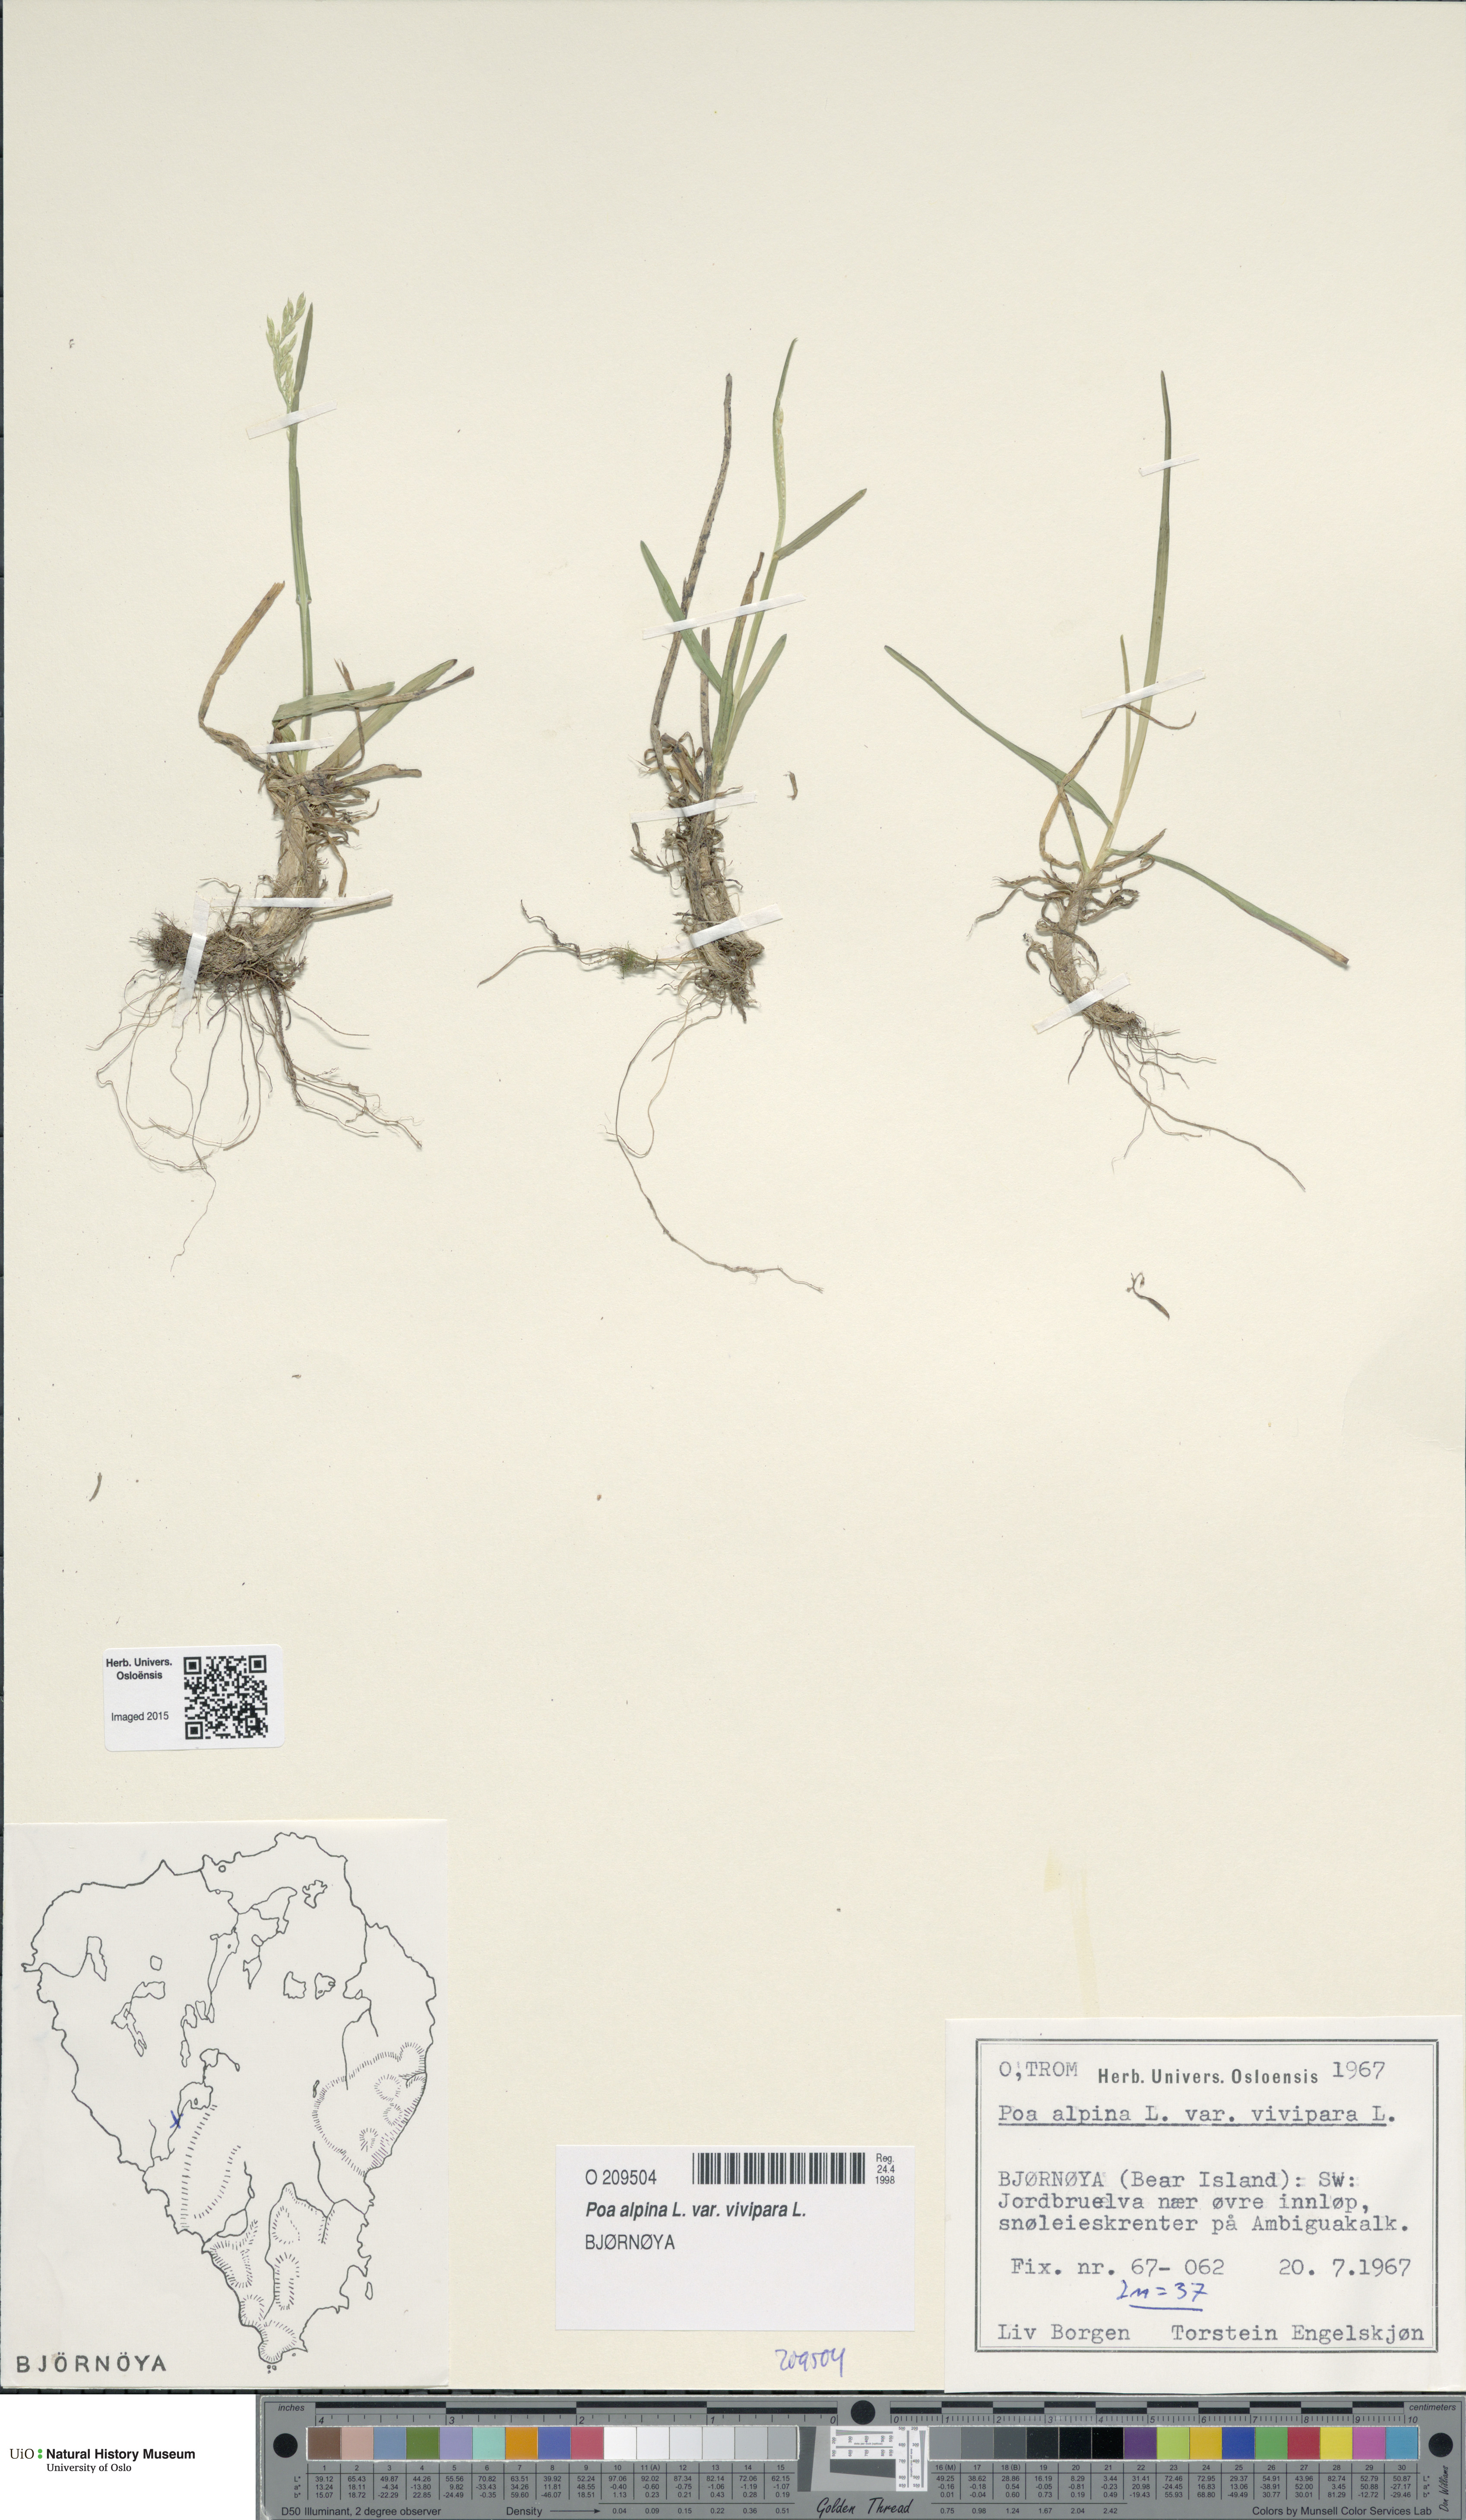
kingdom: Plantae
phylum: Tracheophyta
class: Liliopsida
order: Poales
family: Poaceae
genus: Poa
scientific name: Poa alpina
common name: Alpine bluegrass
